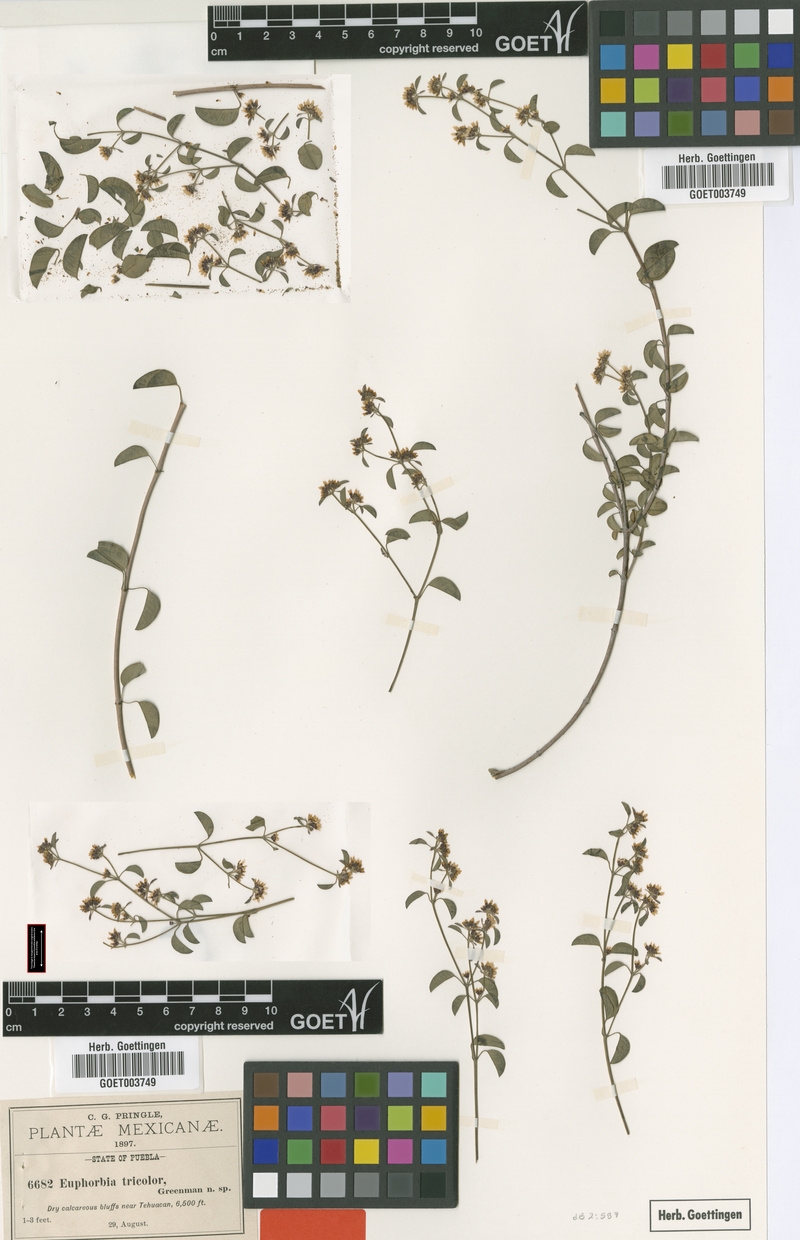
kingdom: Plantae
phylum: Tracheophyta
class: Magnoliopsida
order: Malpighiales
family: Euphorbiaceae
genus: Euphorbia
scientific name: Euphorbia tricolor
